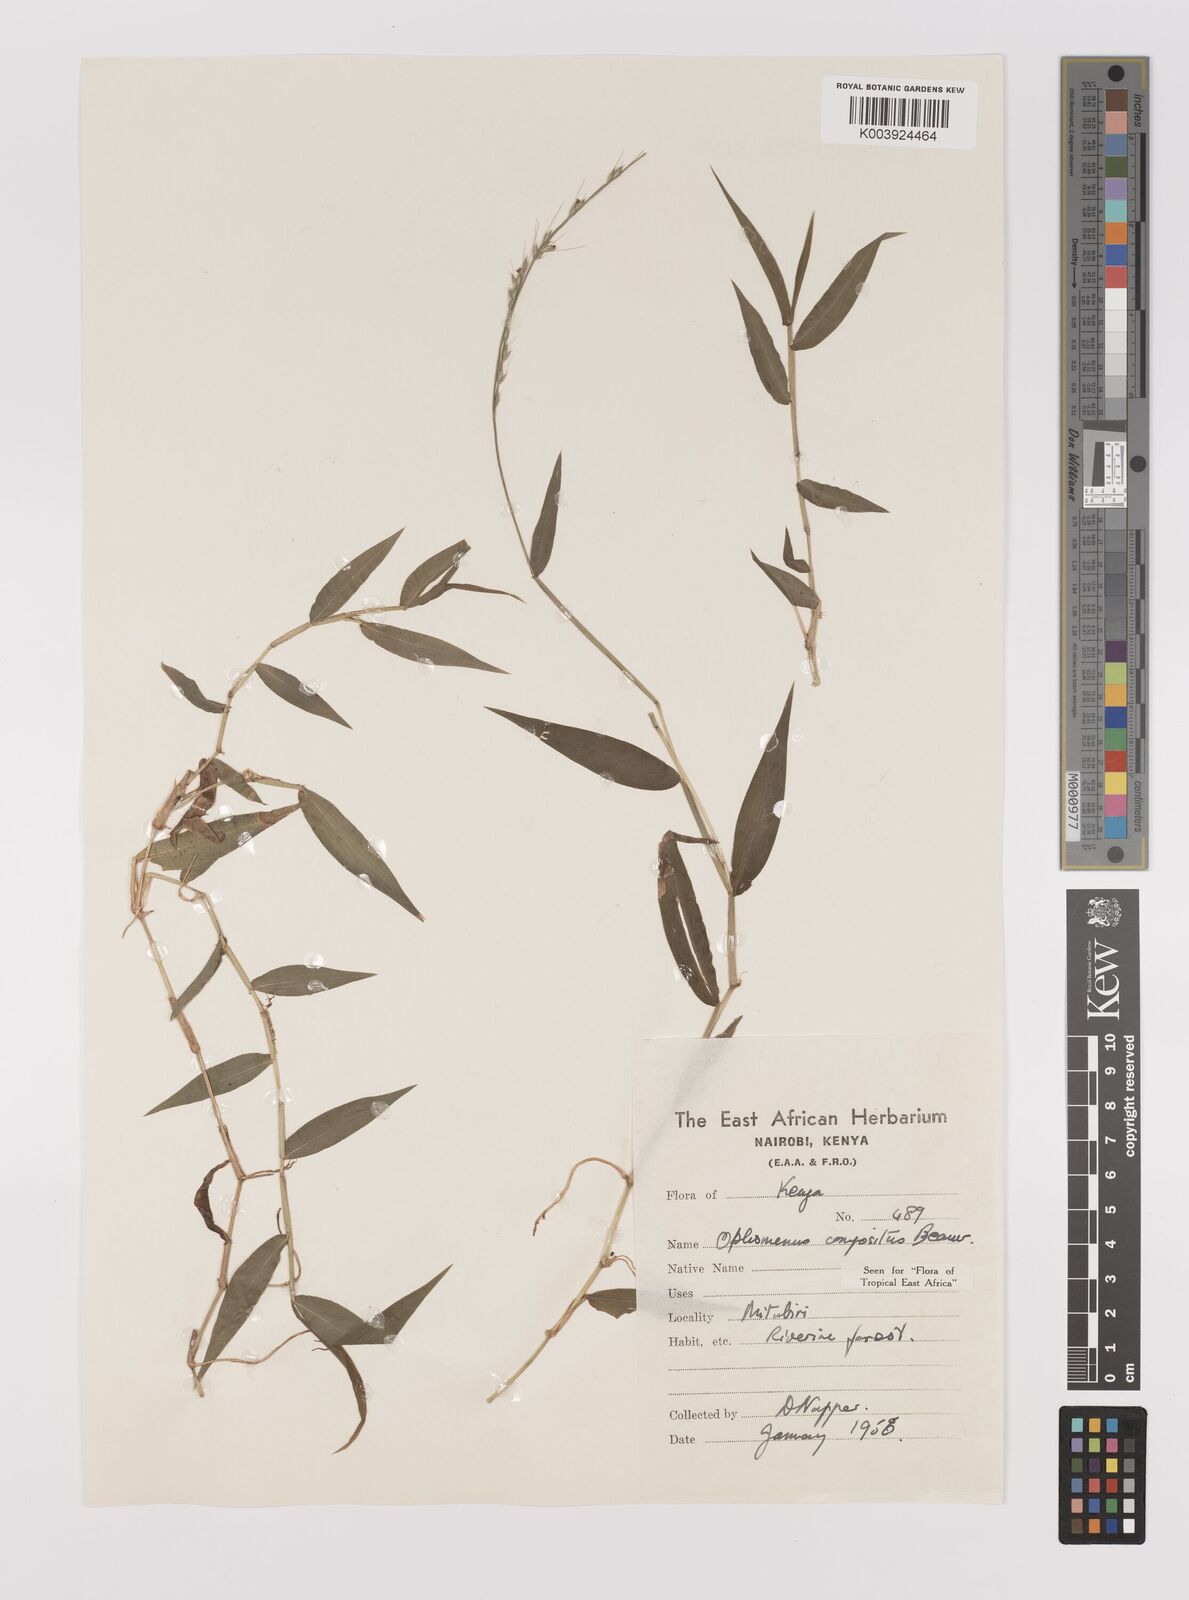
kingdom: Plantae
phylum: Tracheophyta
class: Liliopsida
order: Poales
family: Poaceae
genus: Oplismenus
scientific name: Oplismenus compositus
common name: Running mountain grass
